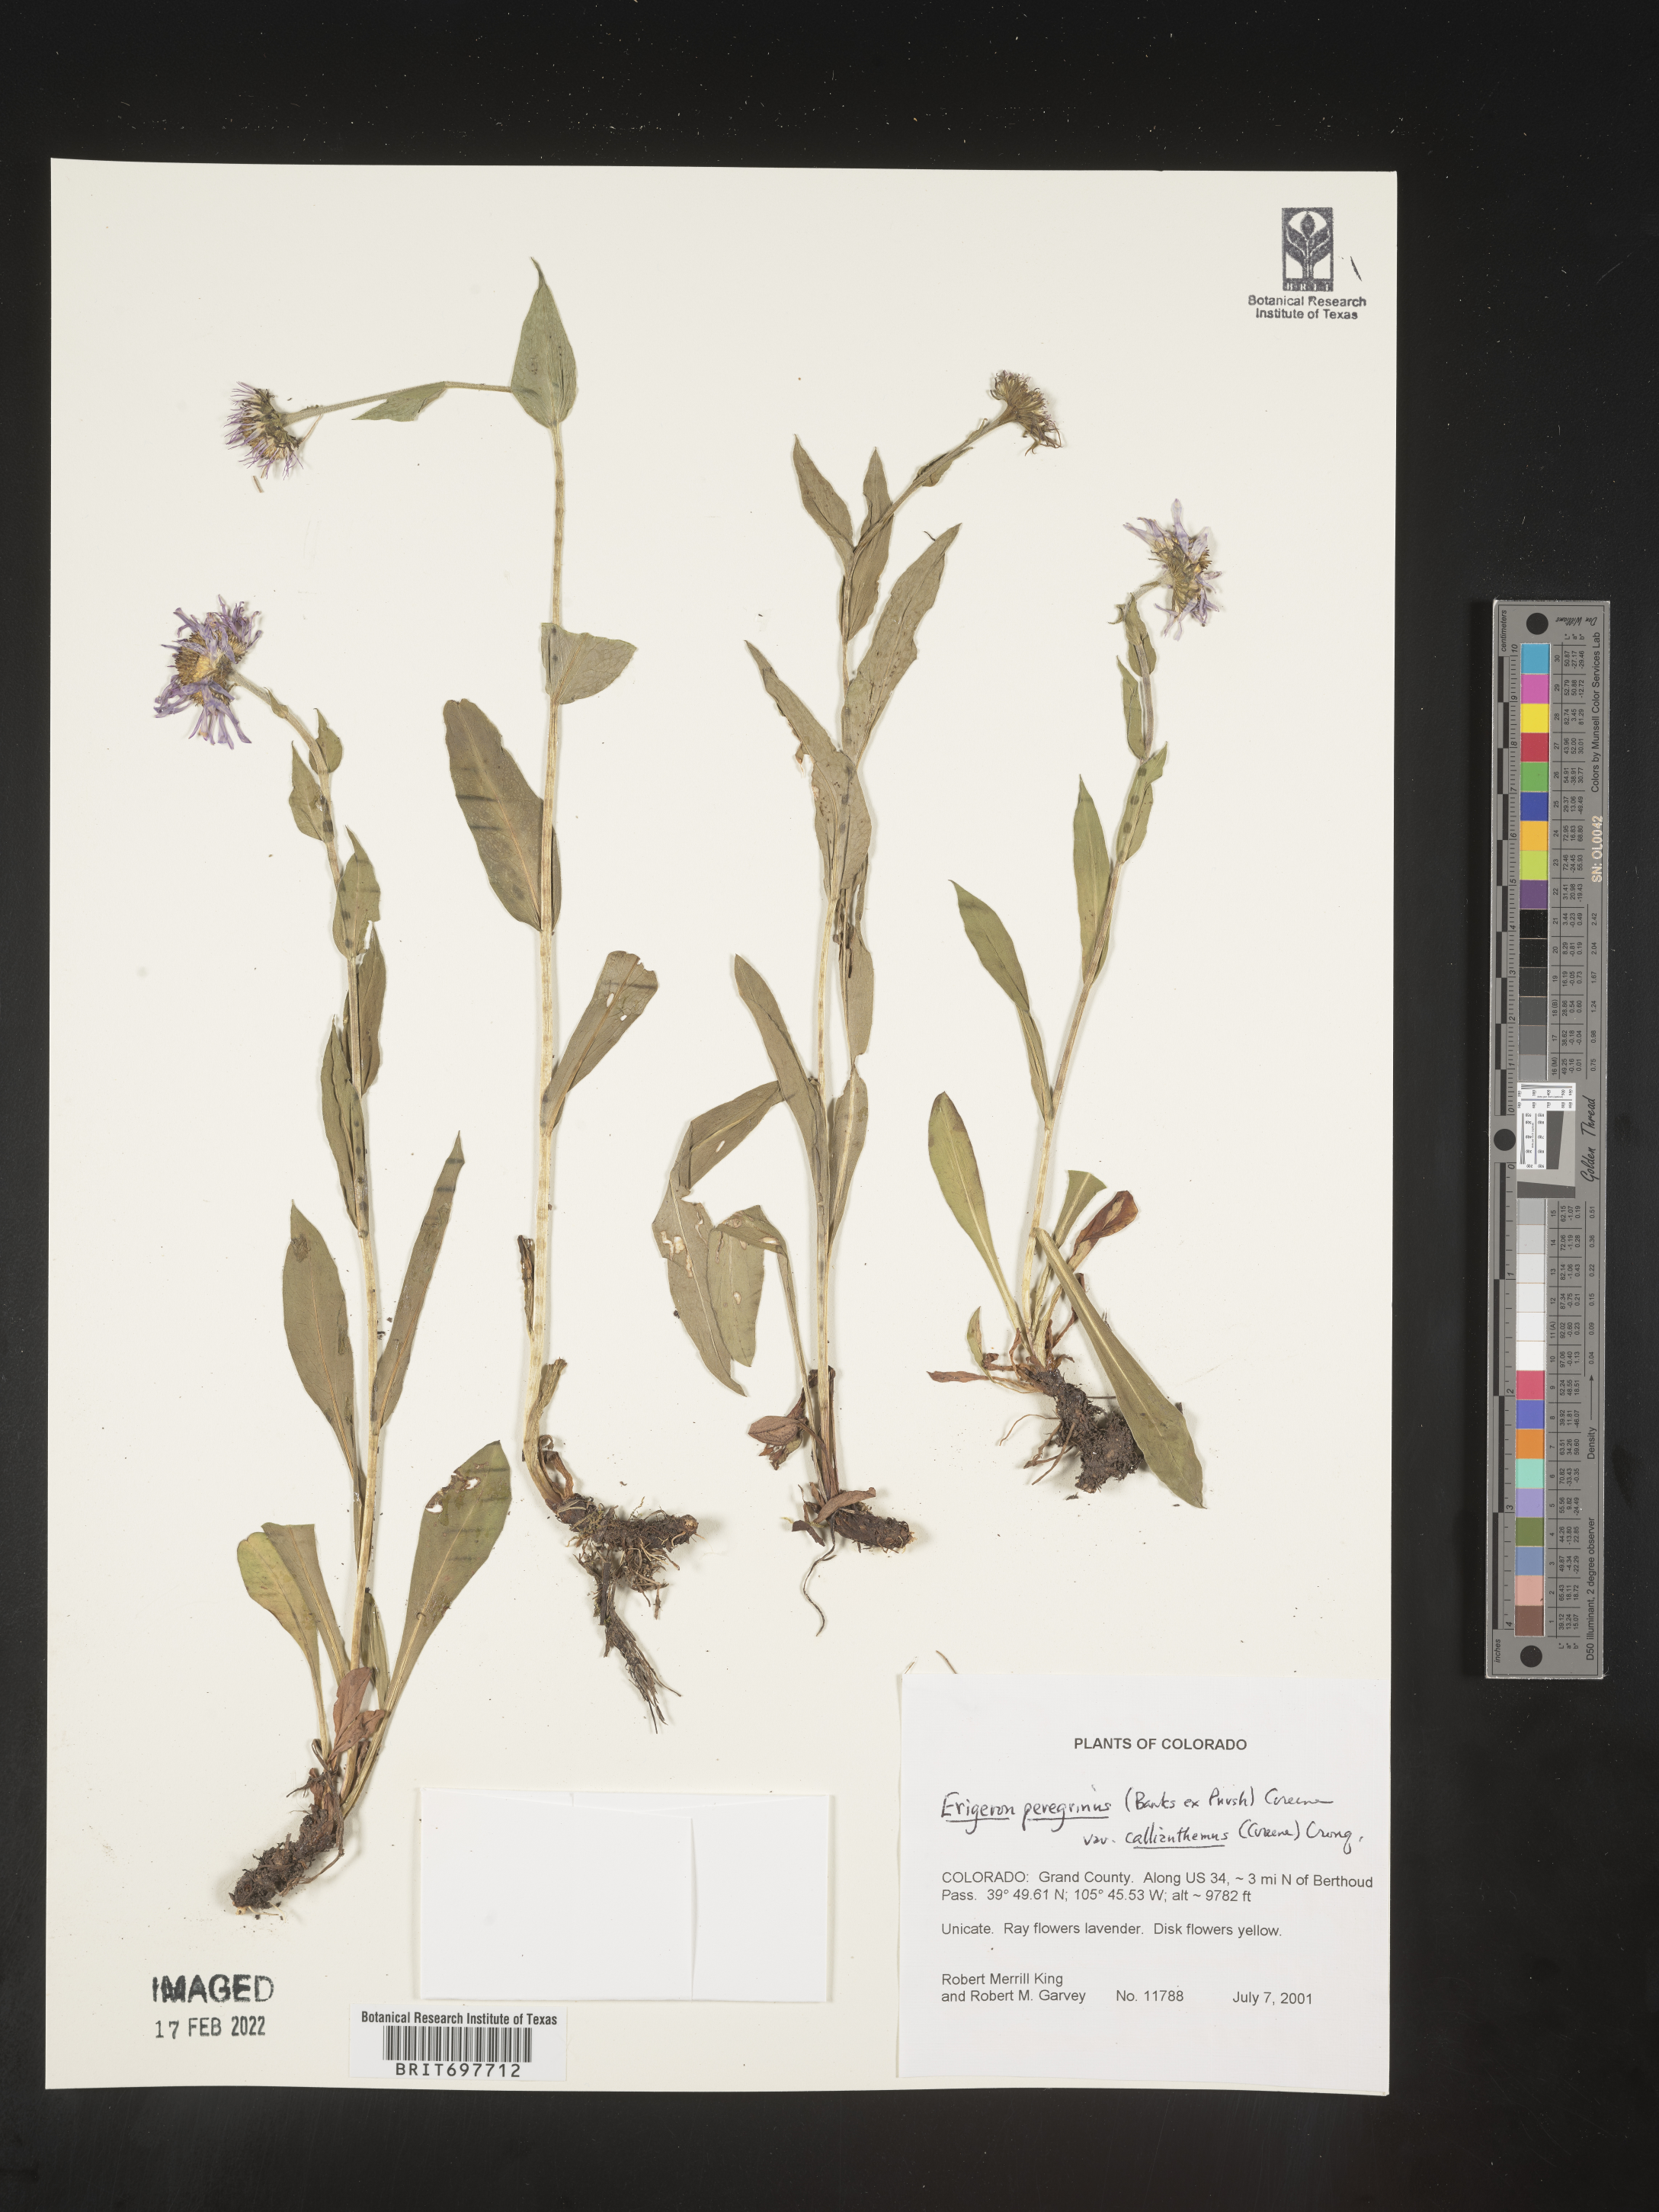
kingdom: Plantae
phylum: Tracheophyta
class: Magnoliopsida
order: Asterales
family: Asteraceae
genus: Erigeron
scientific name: Erigeron glacialis
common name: Subalpine fleabane
